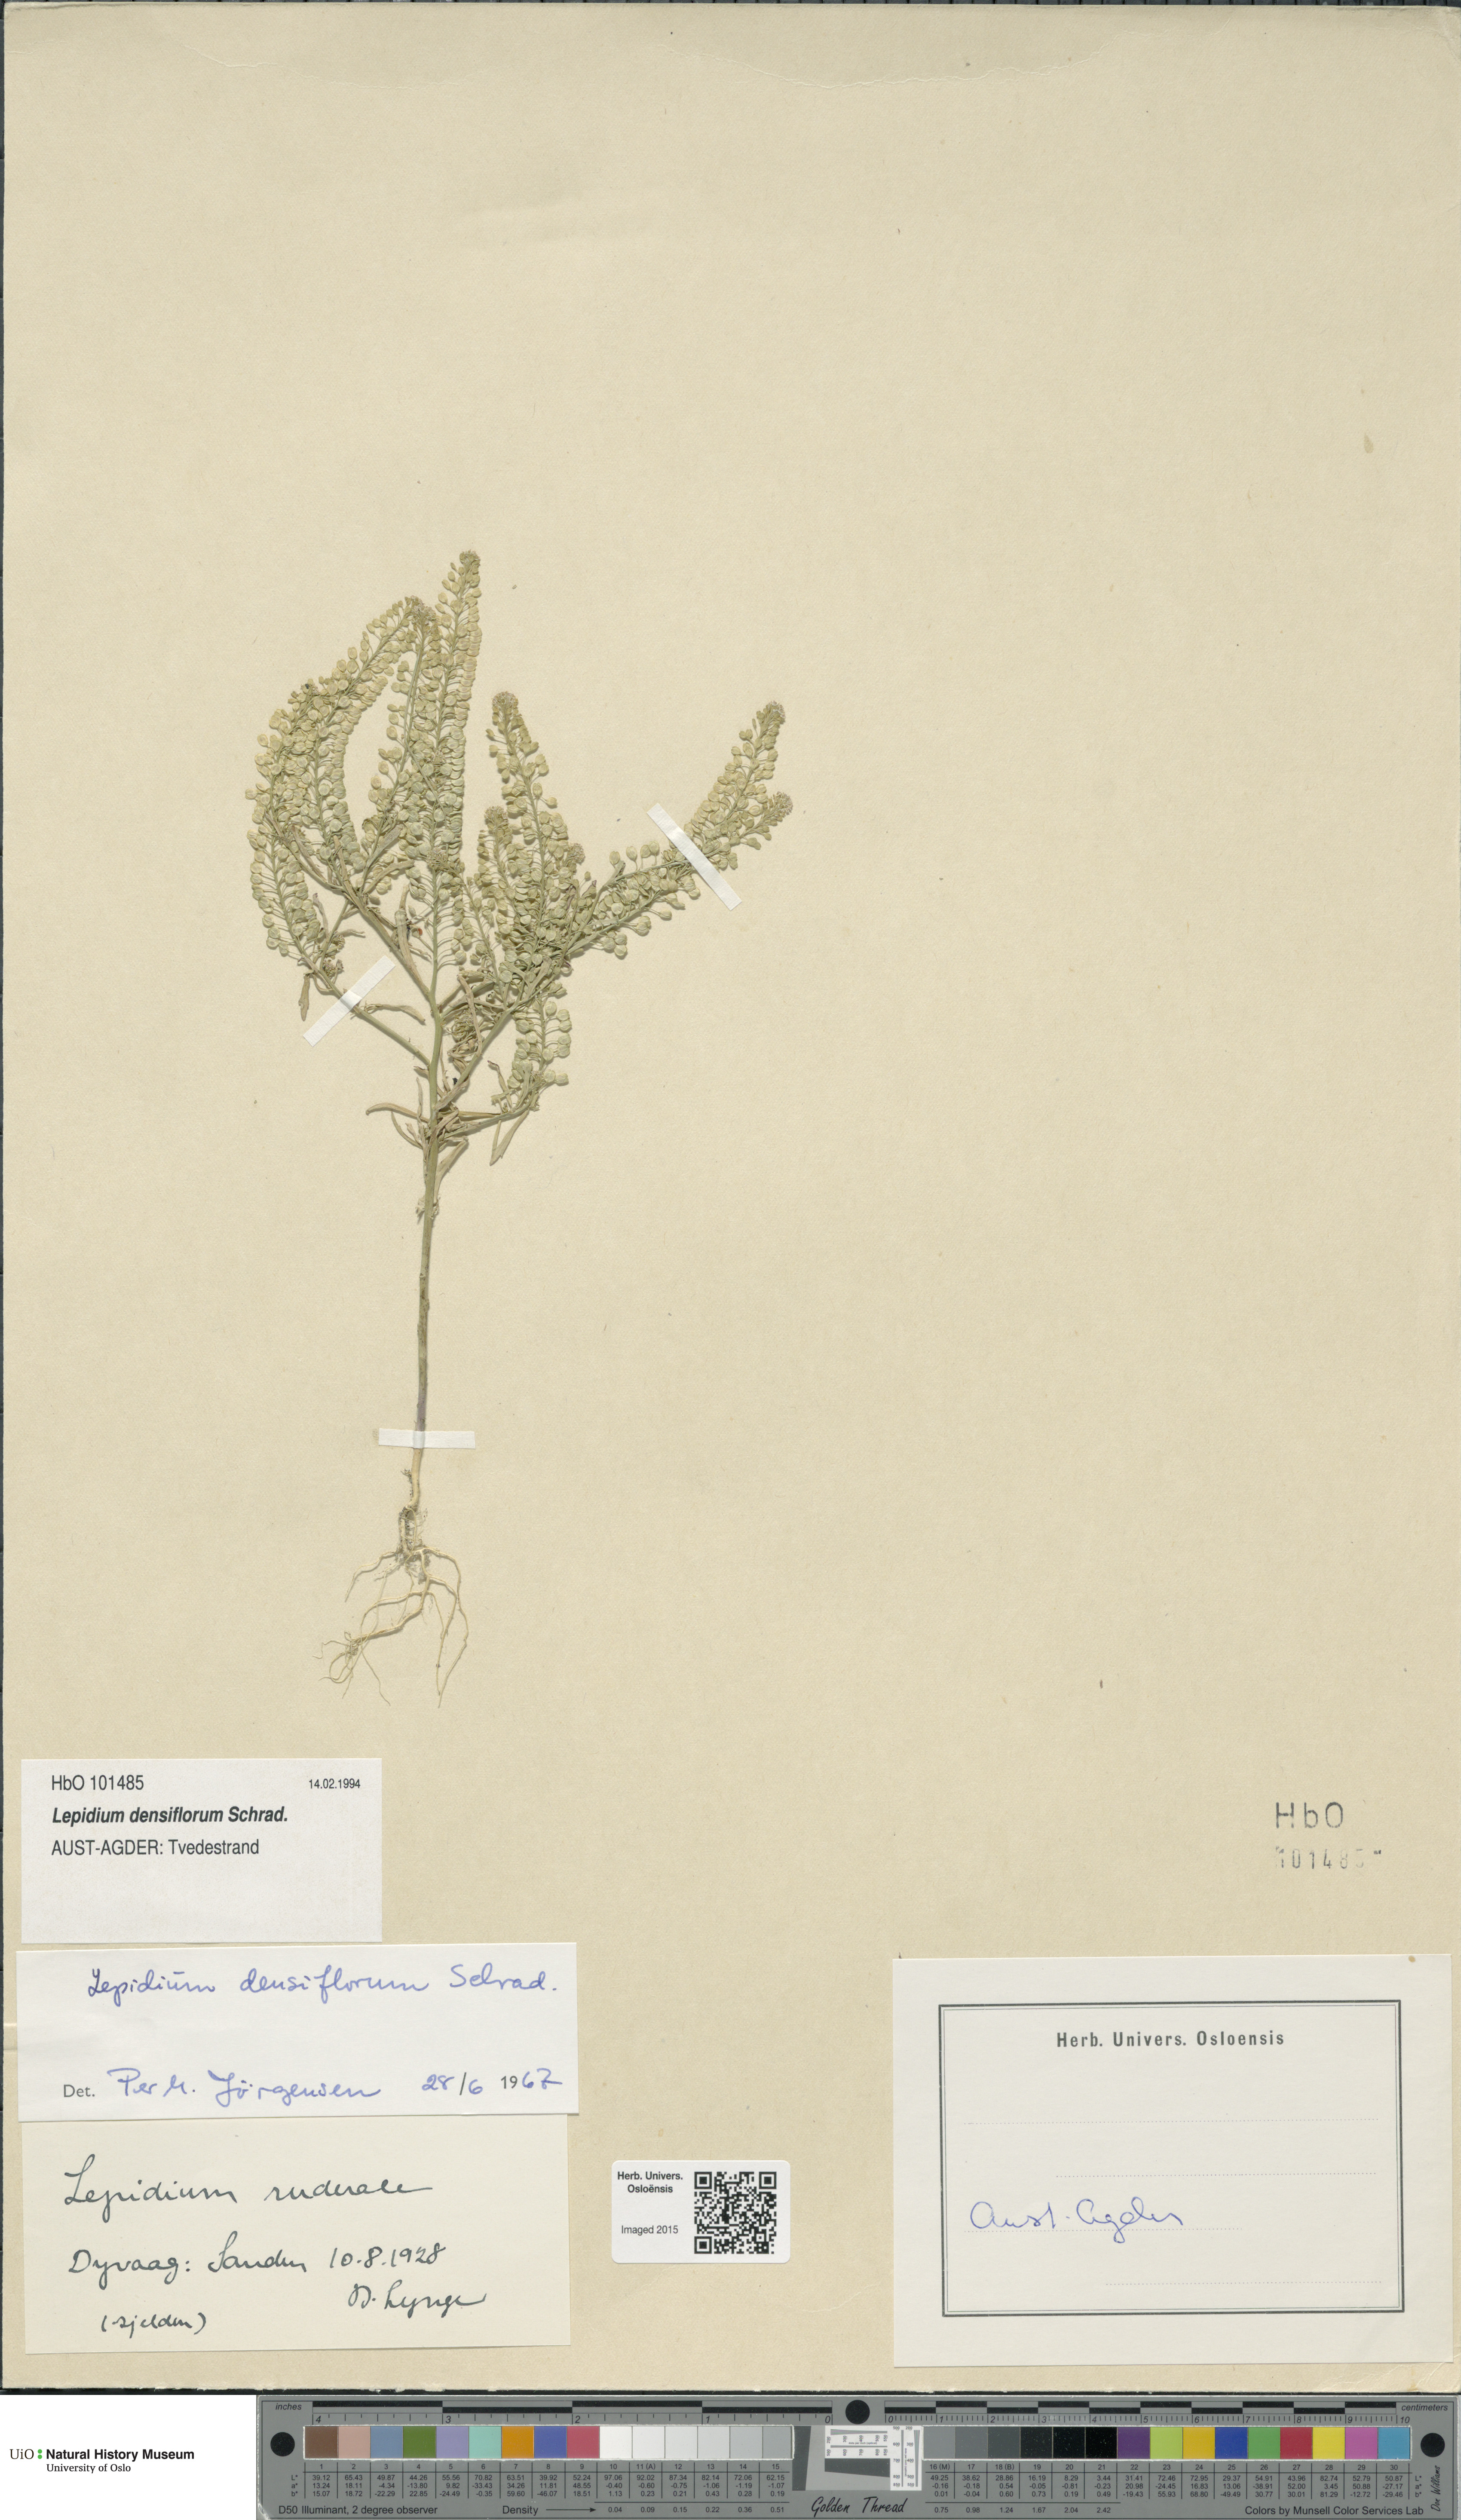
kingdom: Plantae
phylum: Tracheophyta
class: Magnoliopsida
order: Brassicales
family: Brassicaceae
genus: Lepidium
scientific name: Lepidium densiflorum
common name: Miner's pepperwort
